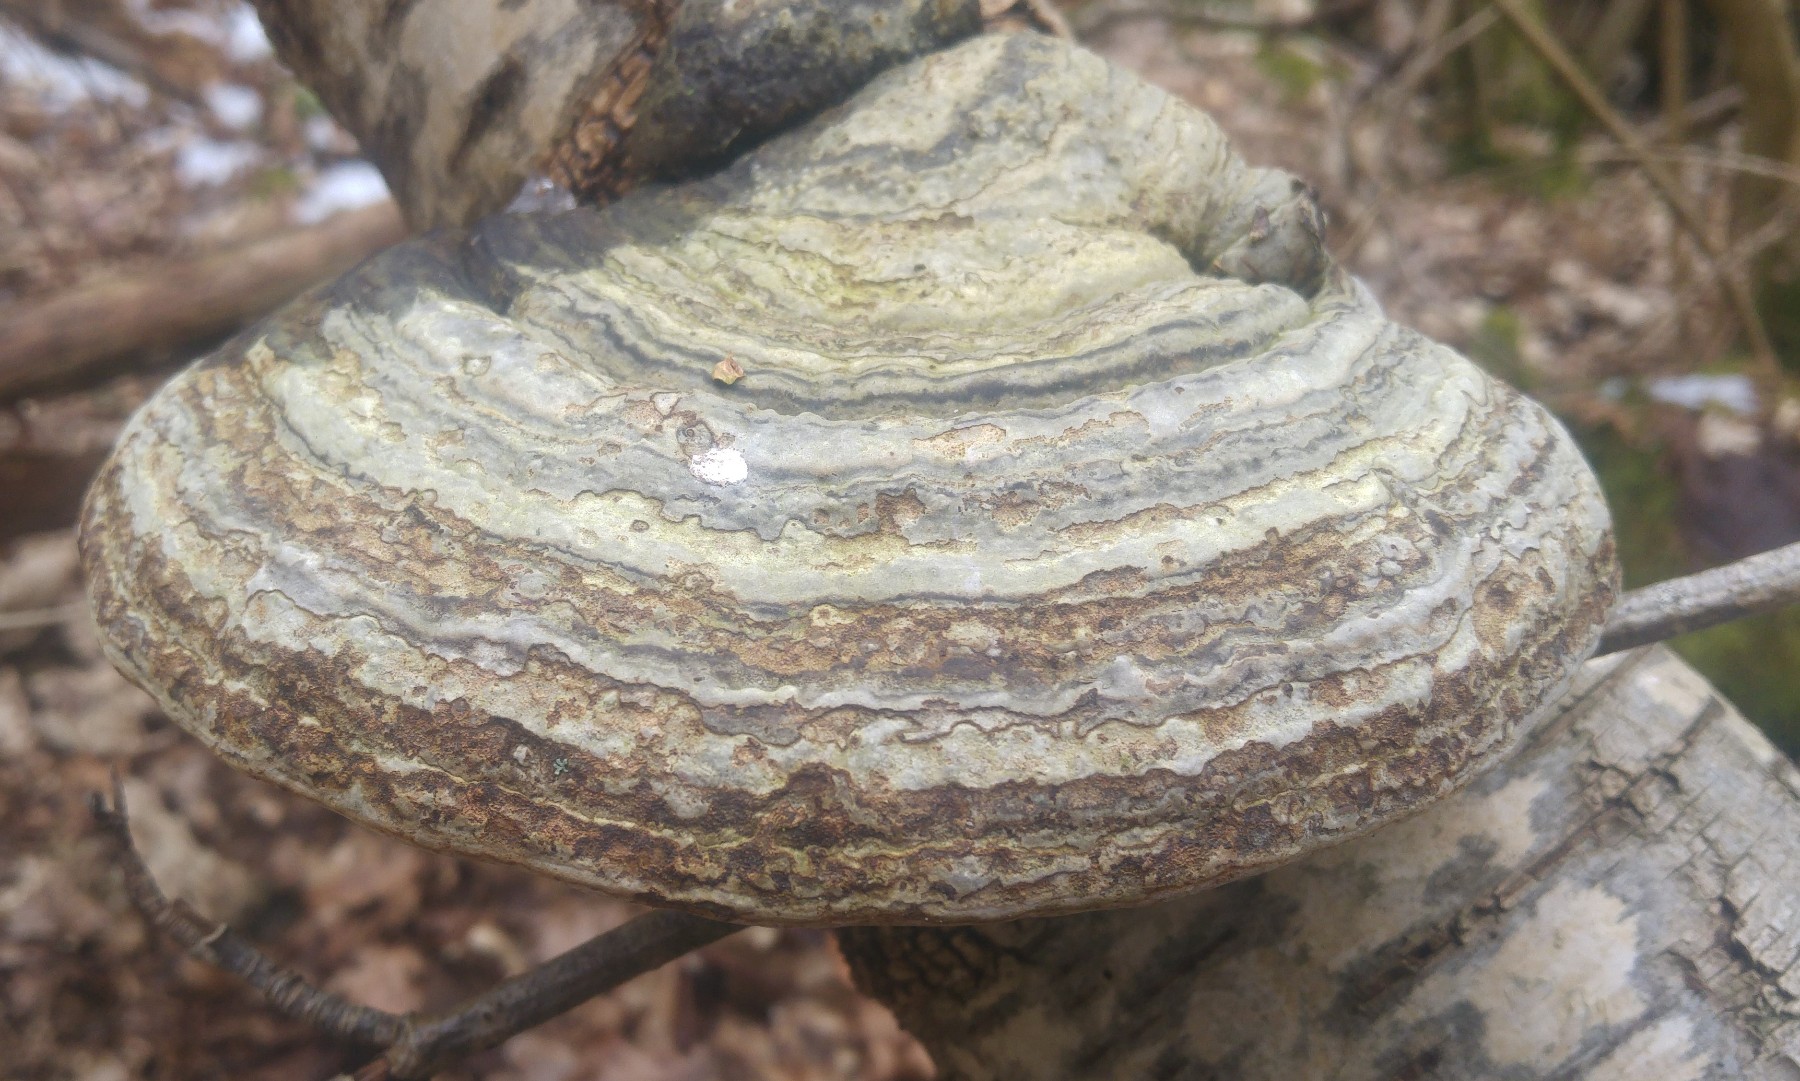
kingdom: Fungi
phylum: Basidiomycota
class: Agaricomycetes
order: Polyporales
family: Polyporaceae
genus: Fomes
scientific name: Fomes fomentarius
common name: tøndersvamp
